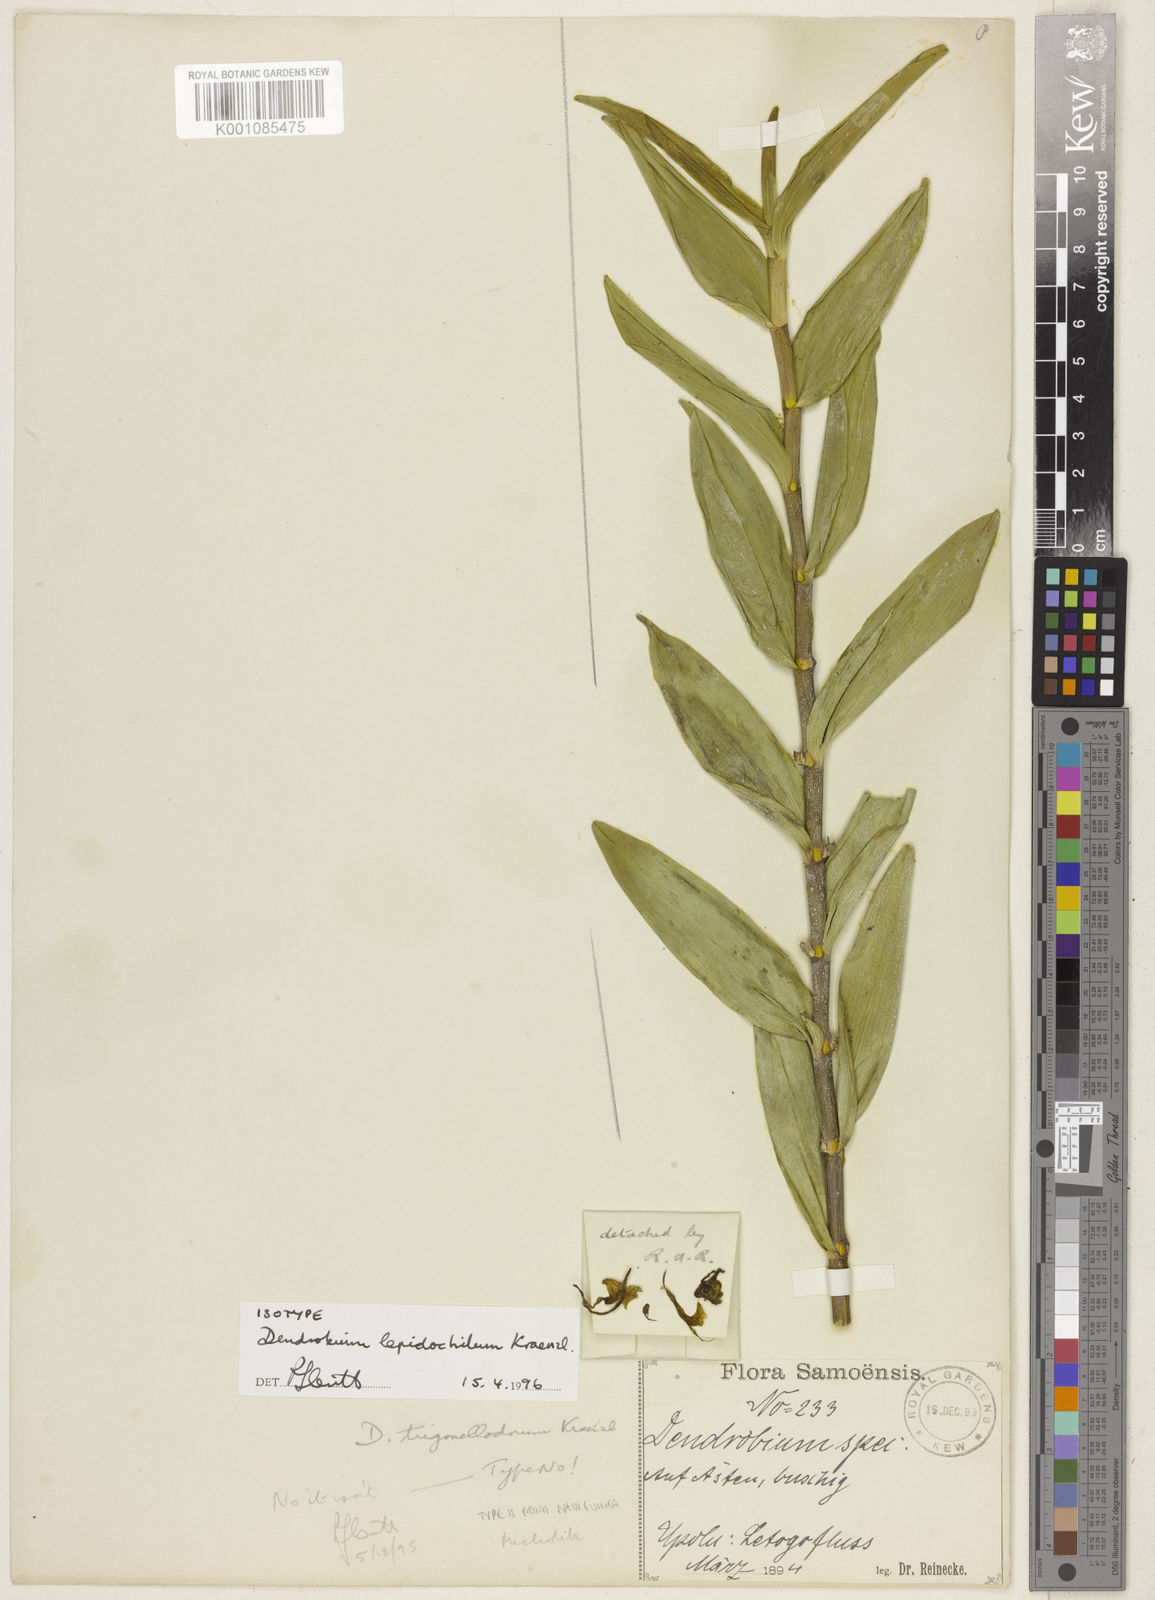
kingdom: Plantae
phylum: Tracheophyta
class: Liliopsida
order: Asparagales
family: Orchidaceae
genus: Dendrobium
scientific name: Dendrobium lepidochilum
